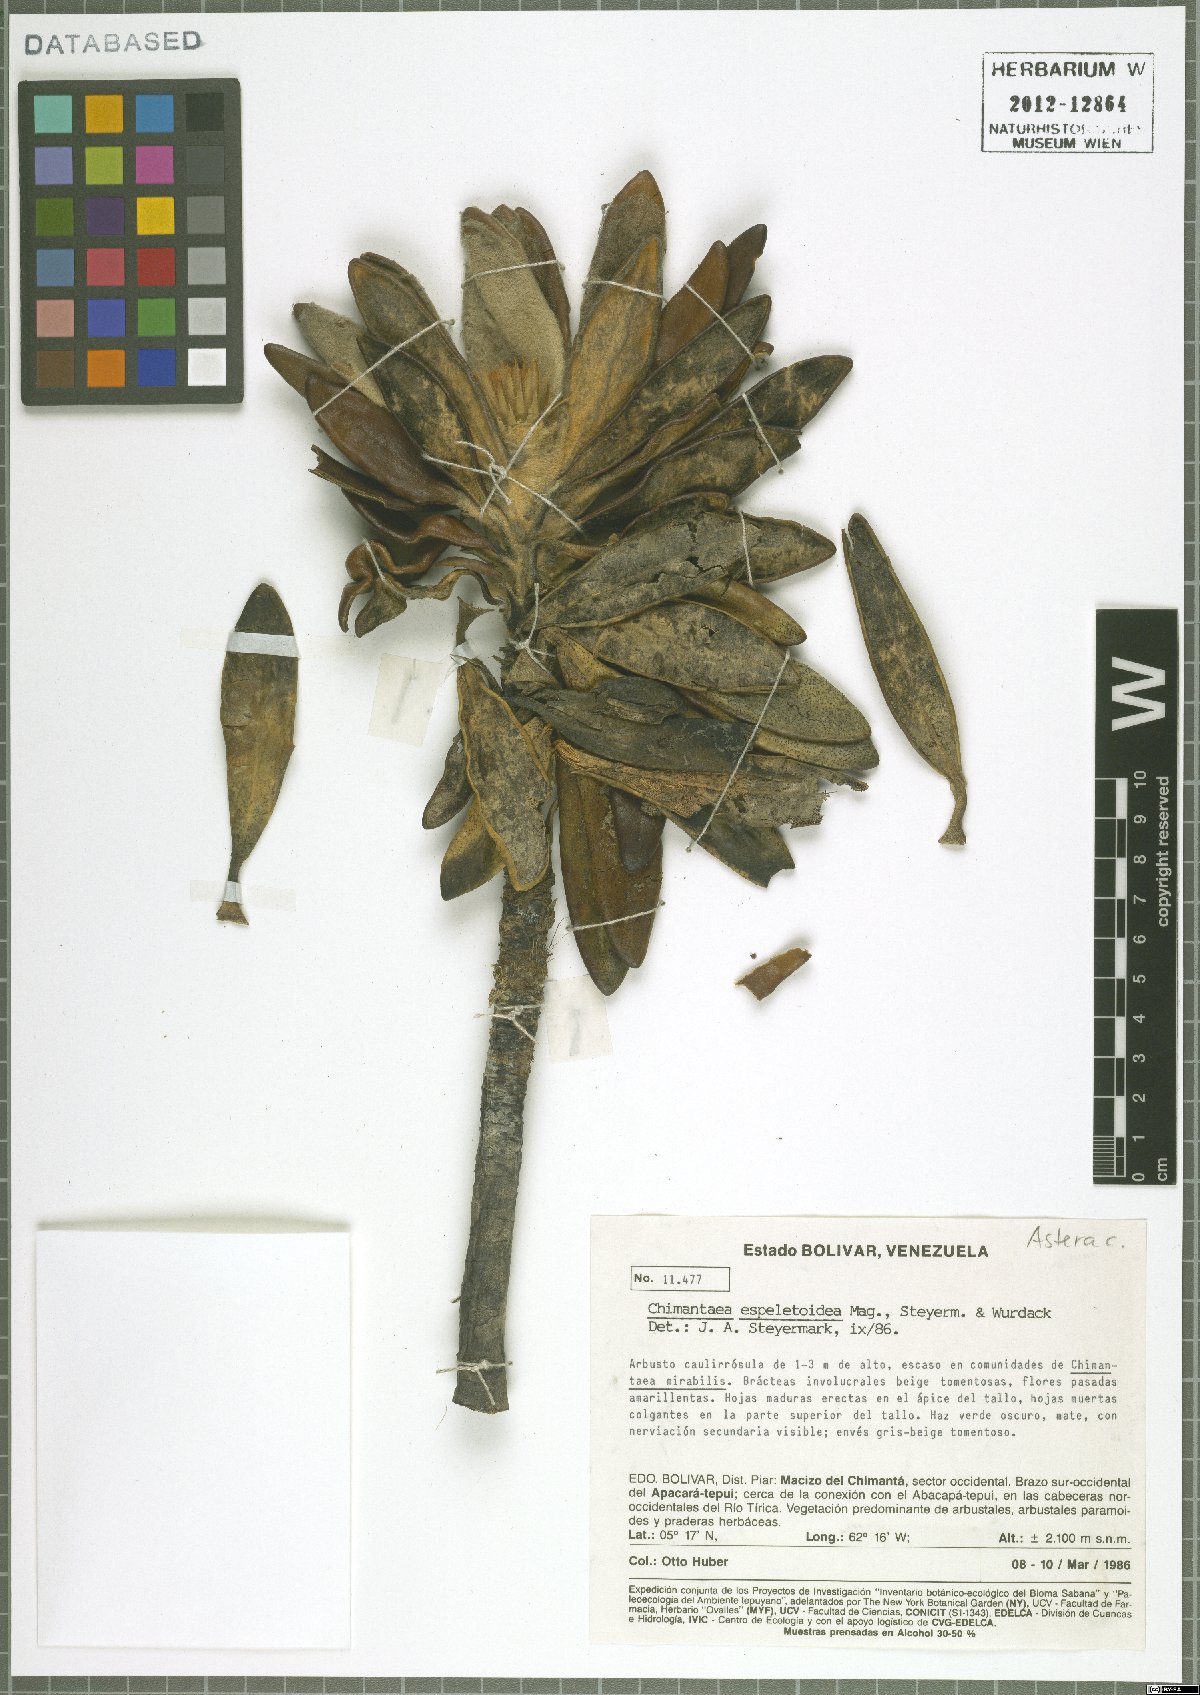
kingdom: Plantae
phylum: Tracheophyta
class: Magnoliopsida
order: Asterales
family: Asteraceae
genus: Chimantaea
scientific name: Chimantaea espeletoidea
